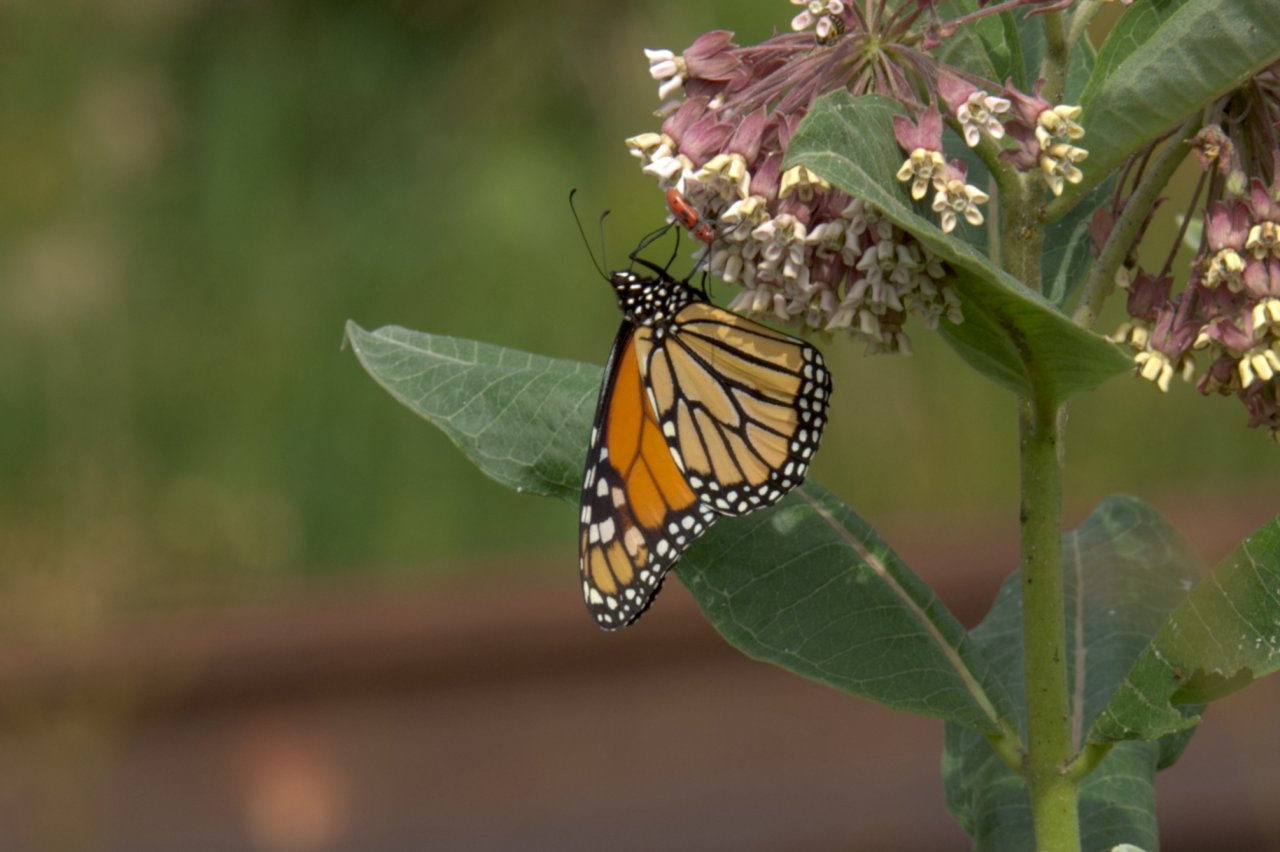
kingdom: Animalia
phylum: Arthropoda
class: Insecta
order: Lepidoptera
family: Nymphalidae
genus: Danaus
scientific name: Danaus plexippus
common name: Monarch
